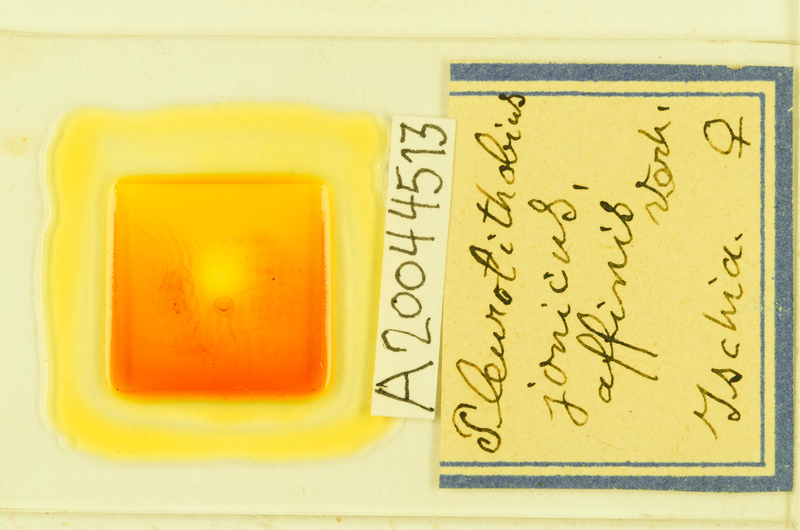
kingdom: Animalia
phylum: Arthropoda
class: Chilopoda
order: Lithobiomorpha
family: Lithobiidae
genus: Pleurolithobius
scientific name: Pleurolithobius
